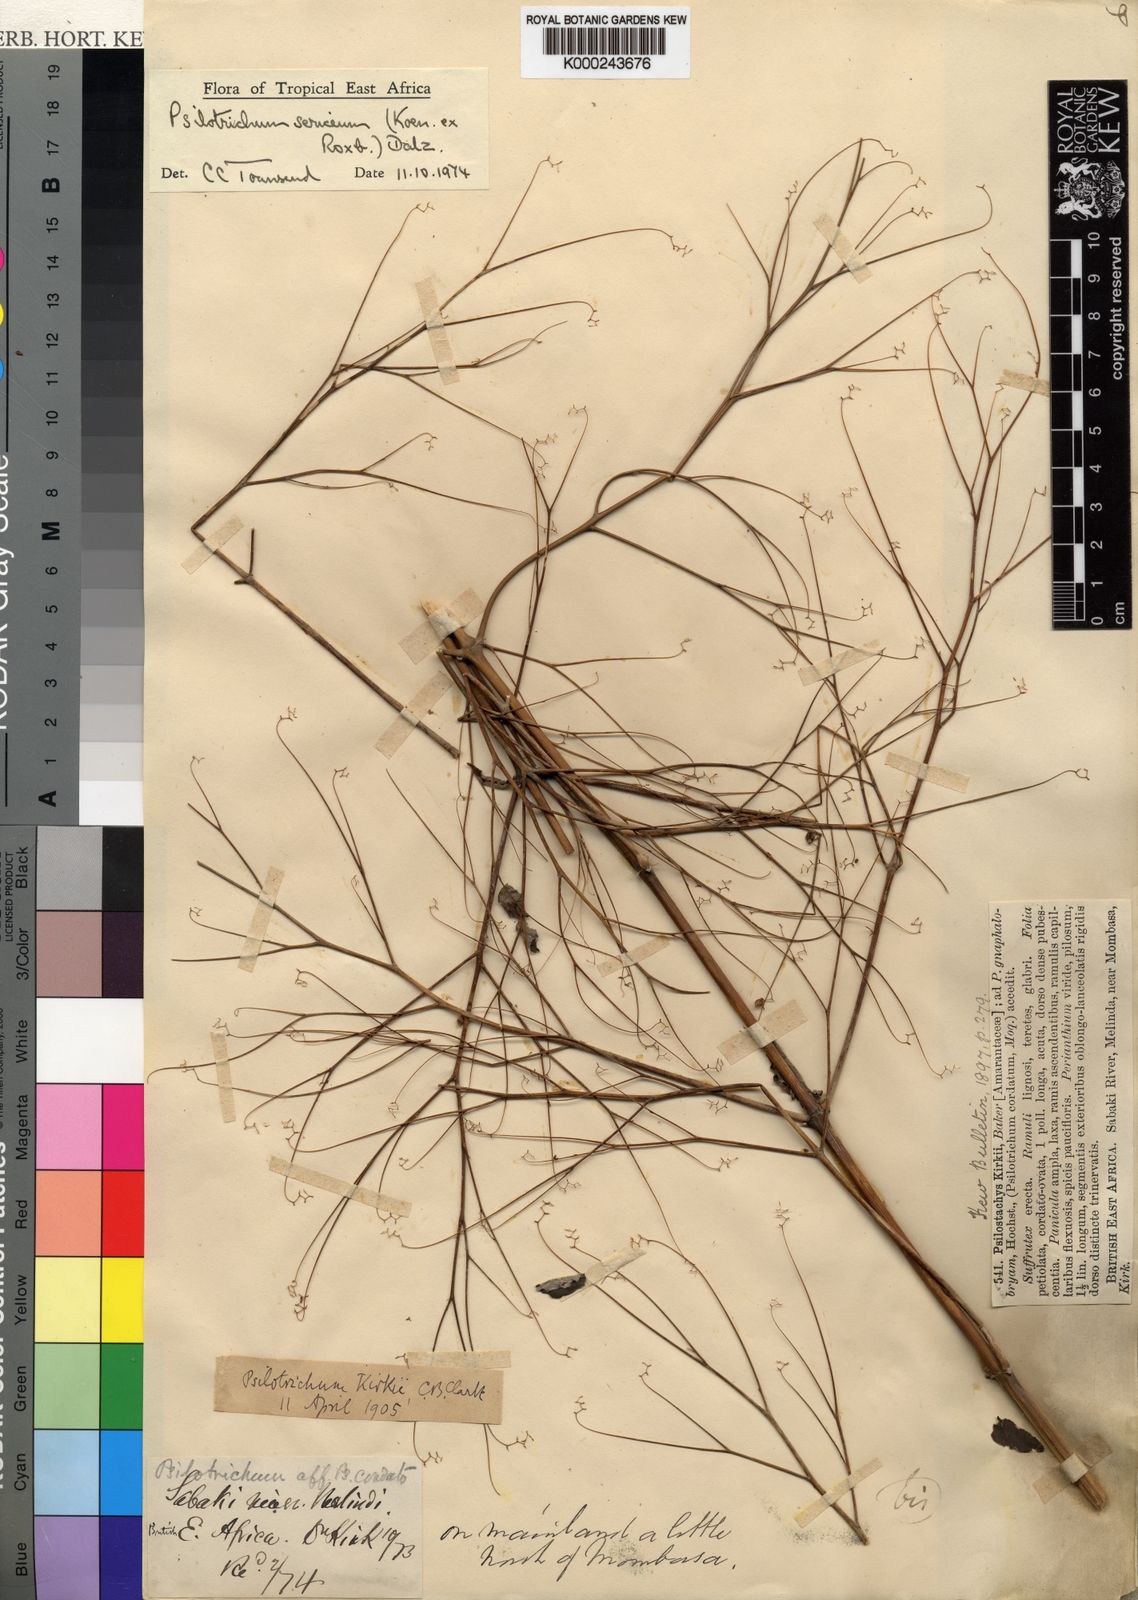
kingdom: Plantae
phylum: Tracheophyta
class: Magnoliopsida
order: Caryophyllales
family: Amaranthaceae
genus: Psilotrichum
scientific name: Psilotrichum sericeum
